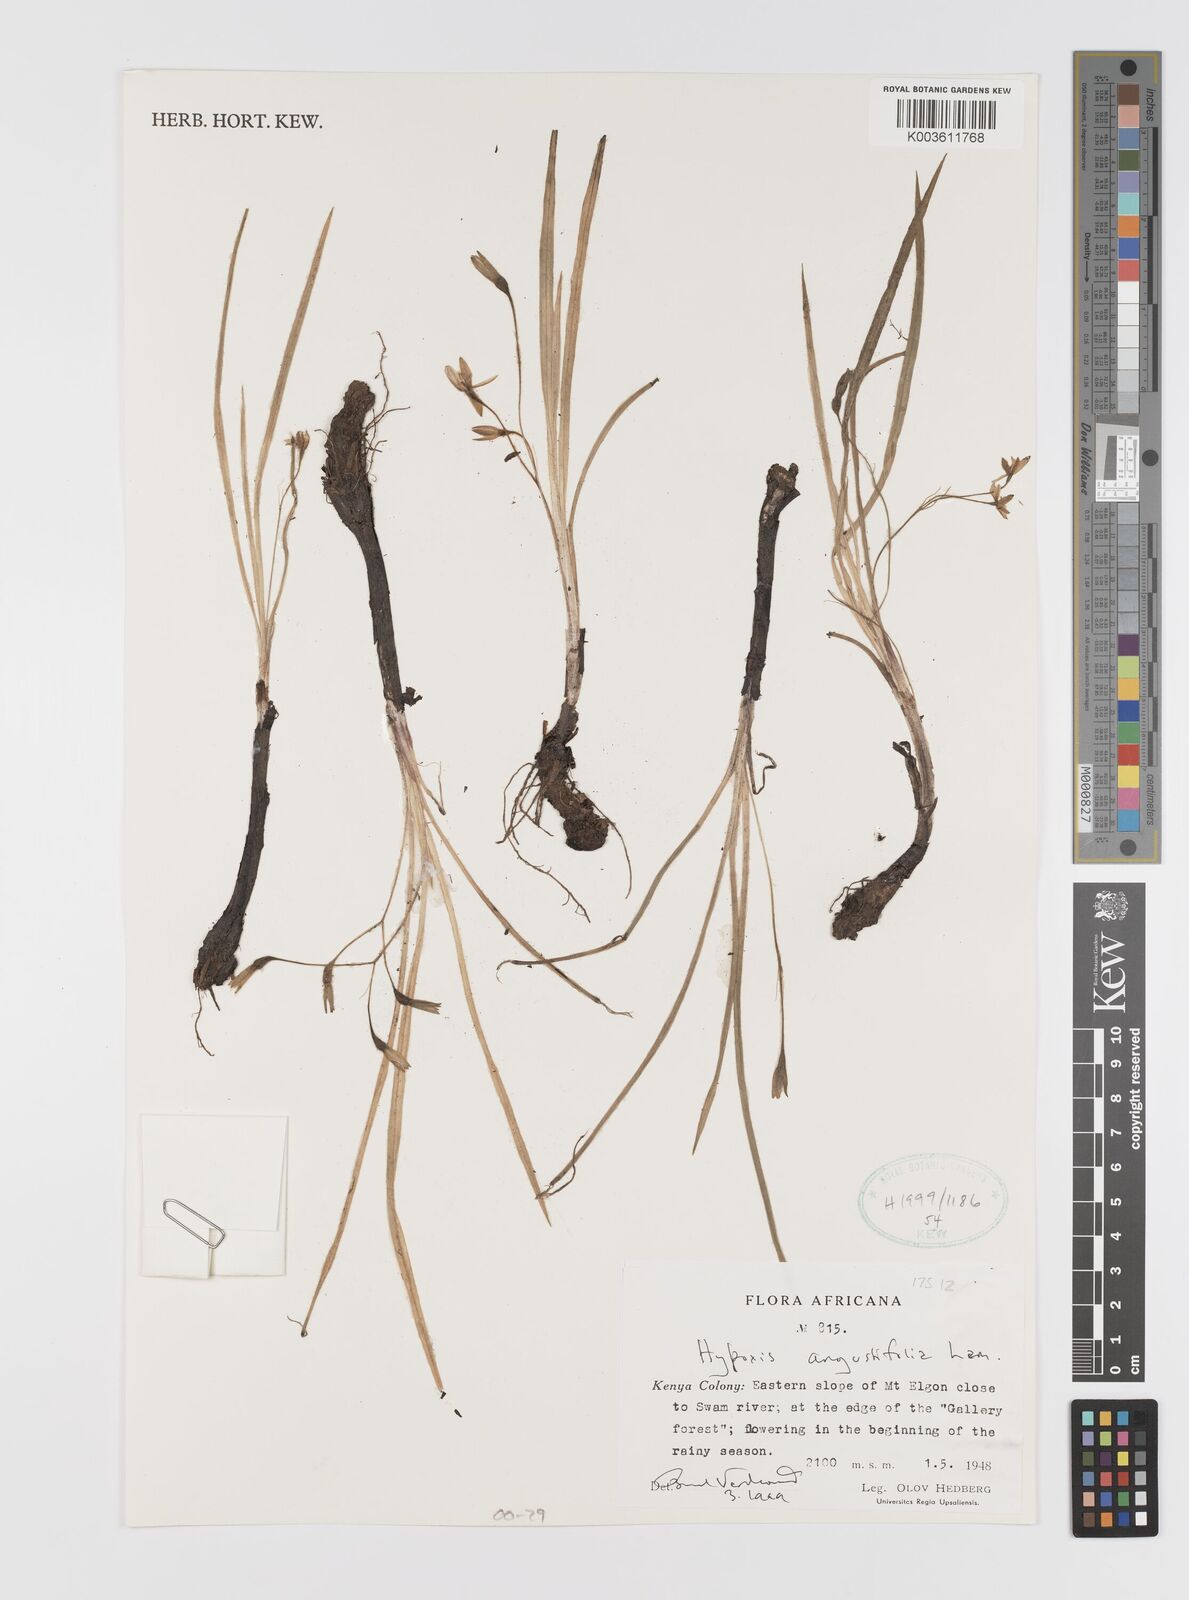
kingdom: Plantae
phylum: Tracheophyta
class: Liliopsida
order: Asparagales
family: Hypoxidaceae
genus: Hypoxis
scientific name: Hypoxis angustifolia
